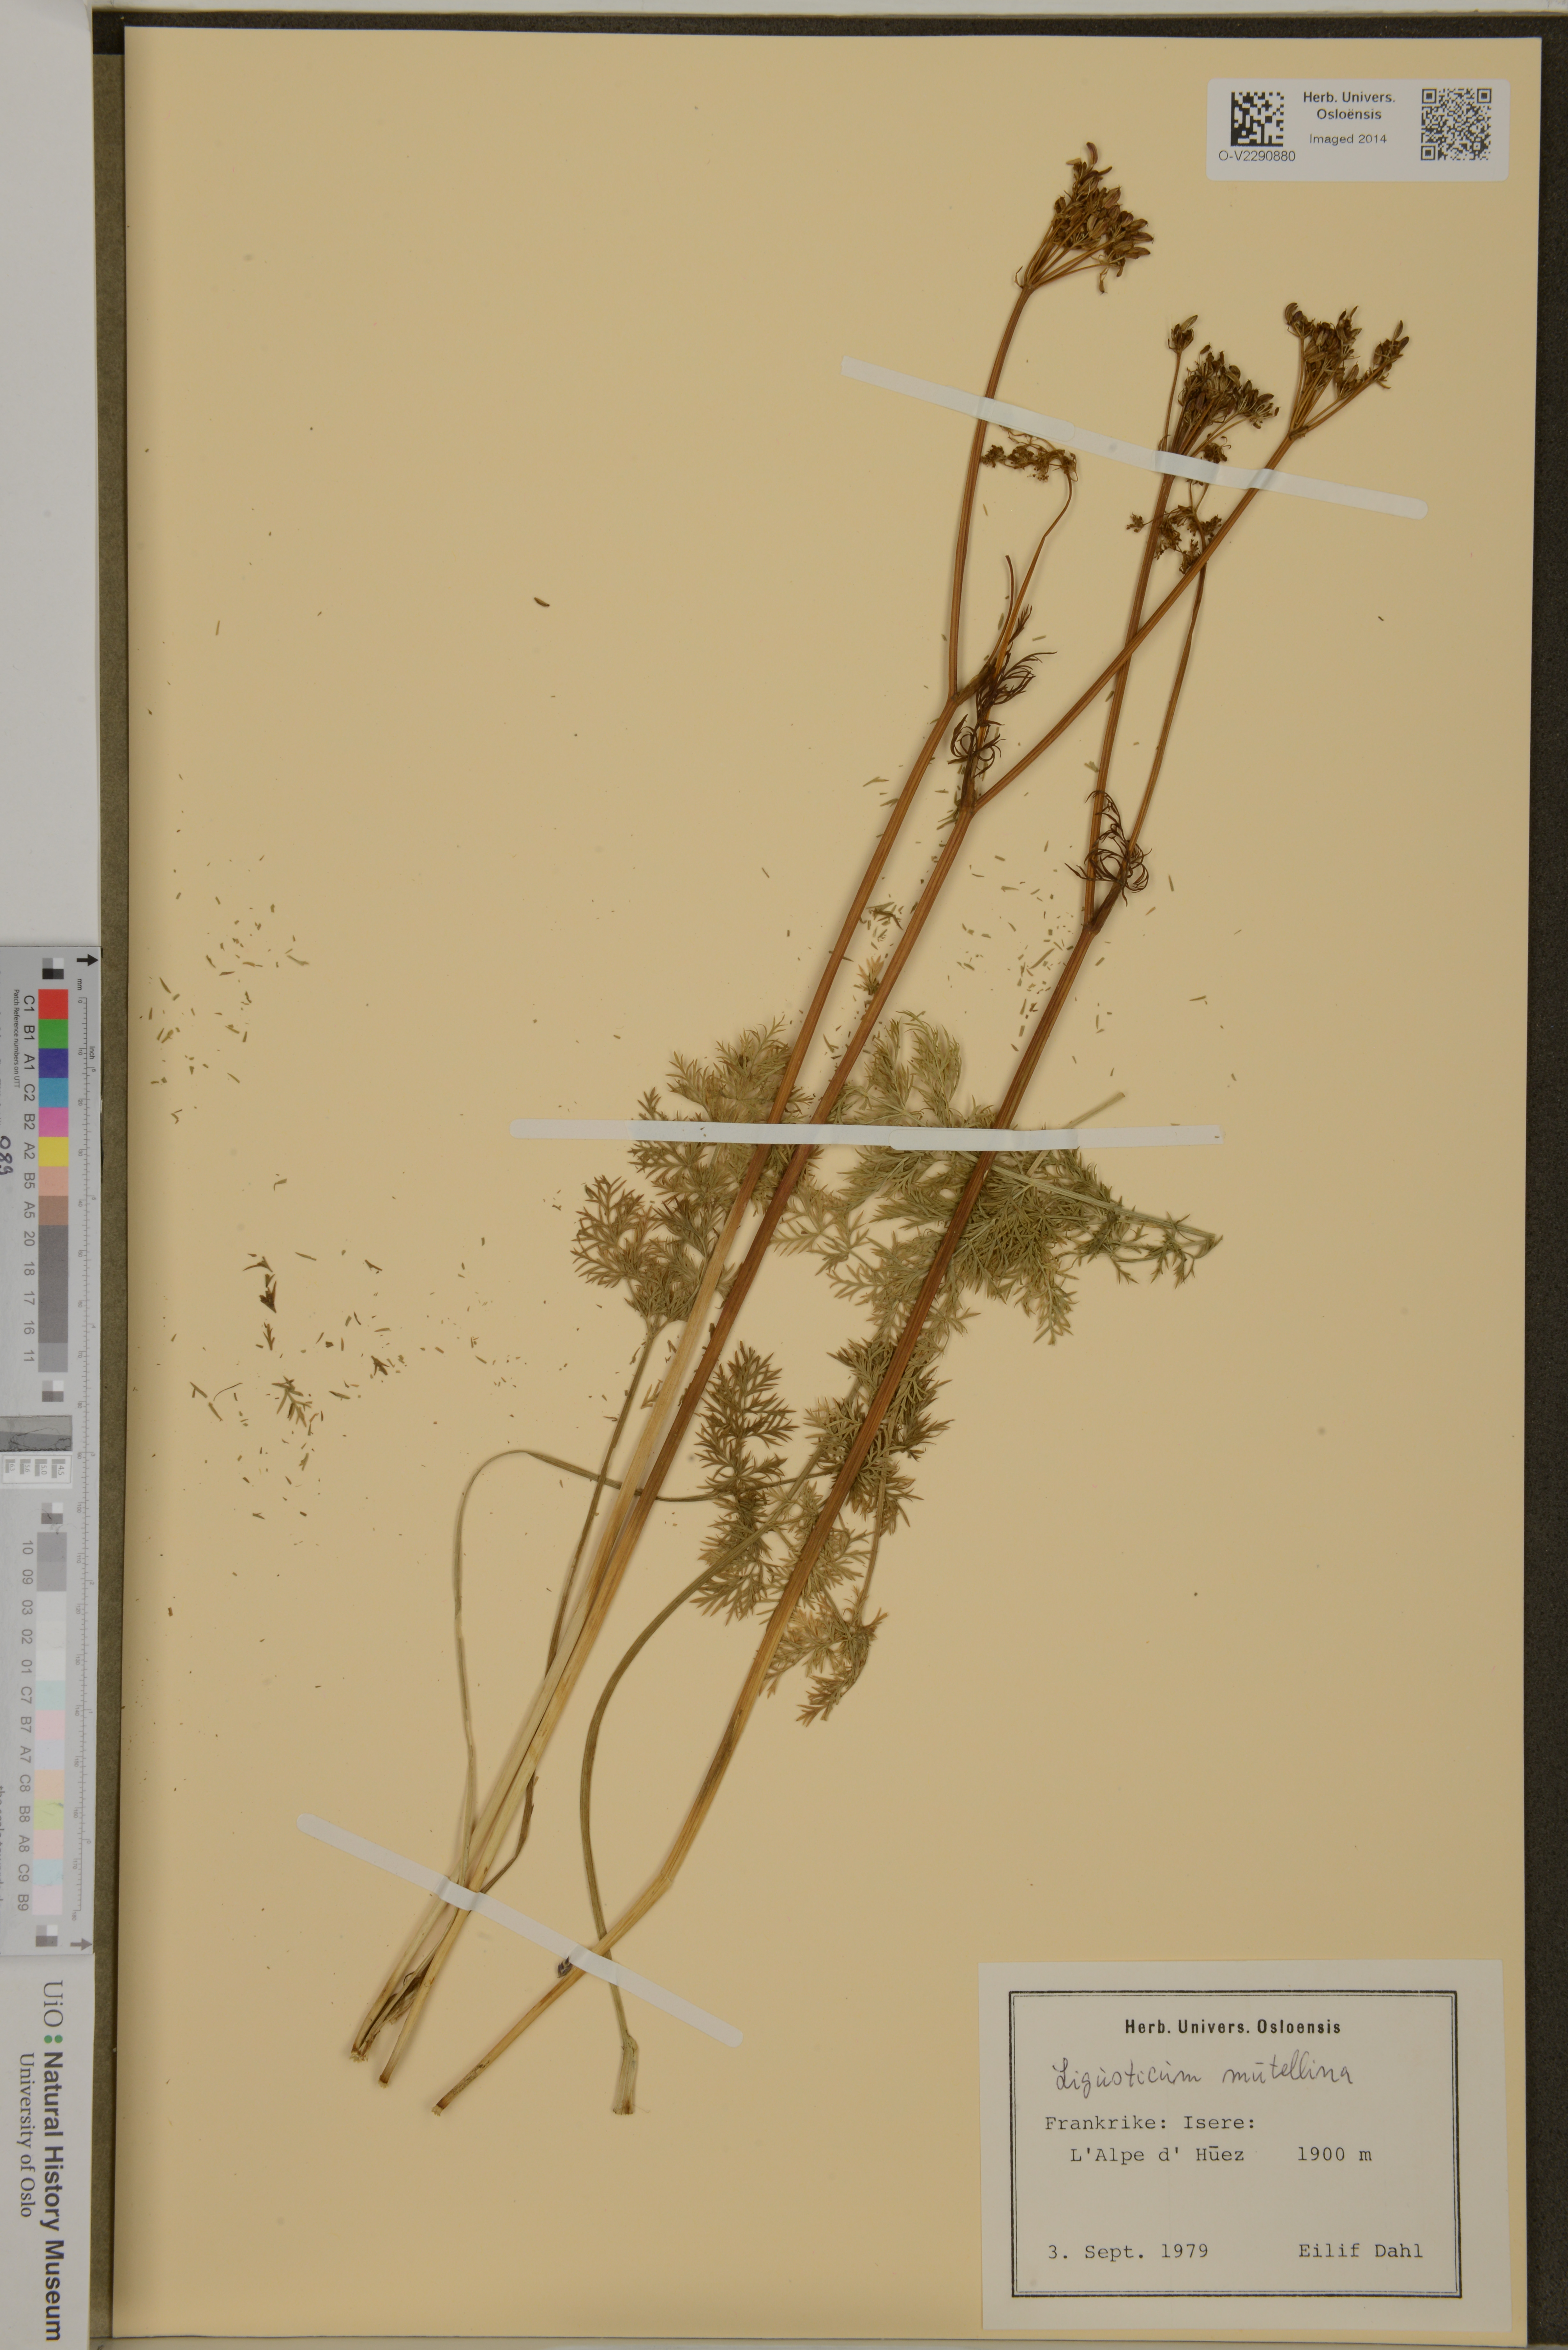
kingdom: Plantae
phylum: Tracheophyta
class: Magnoliopsida
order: Apiales
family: Apiaceae
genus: Mutellina
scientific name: Mutellina adonidifolia
